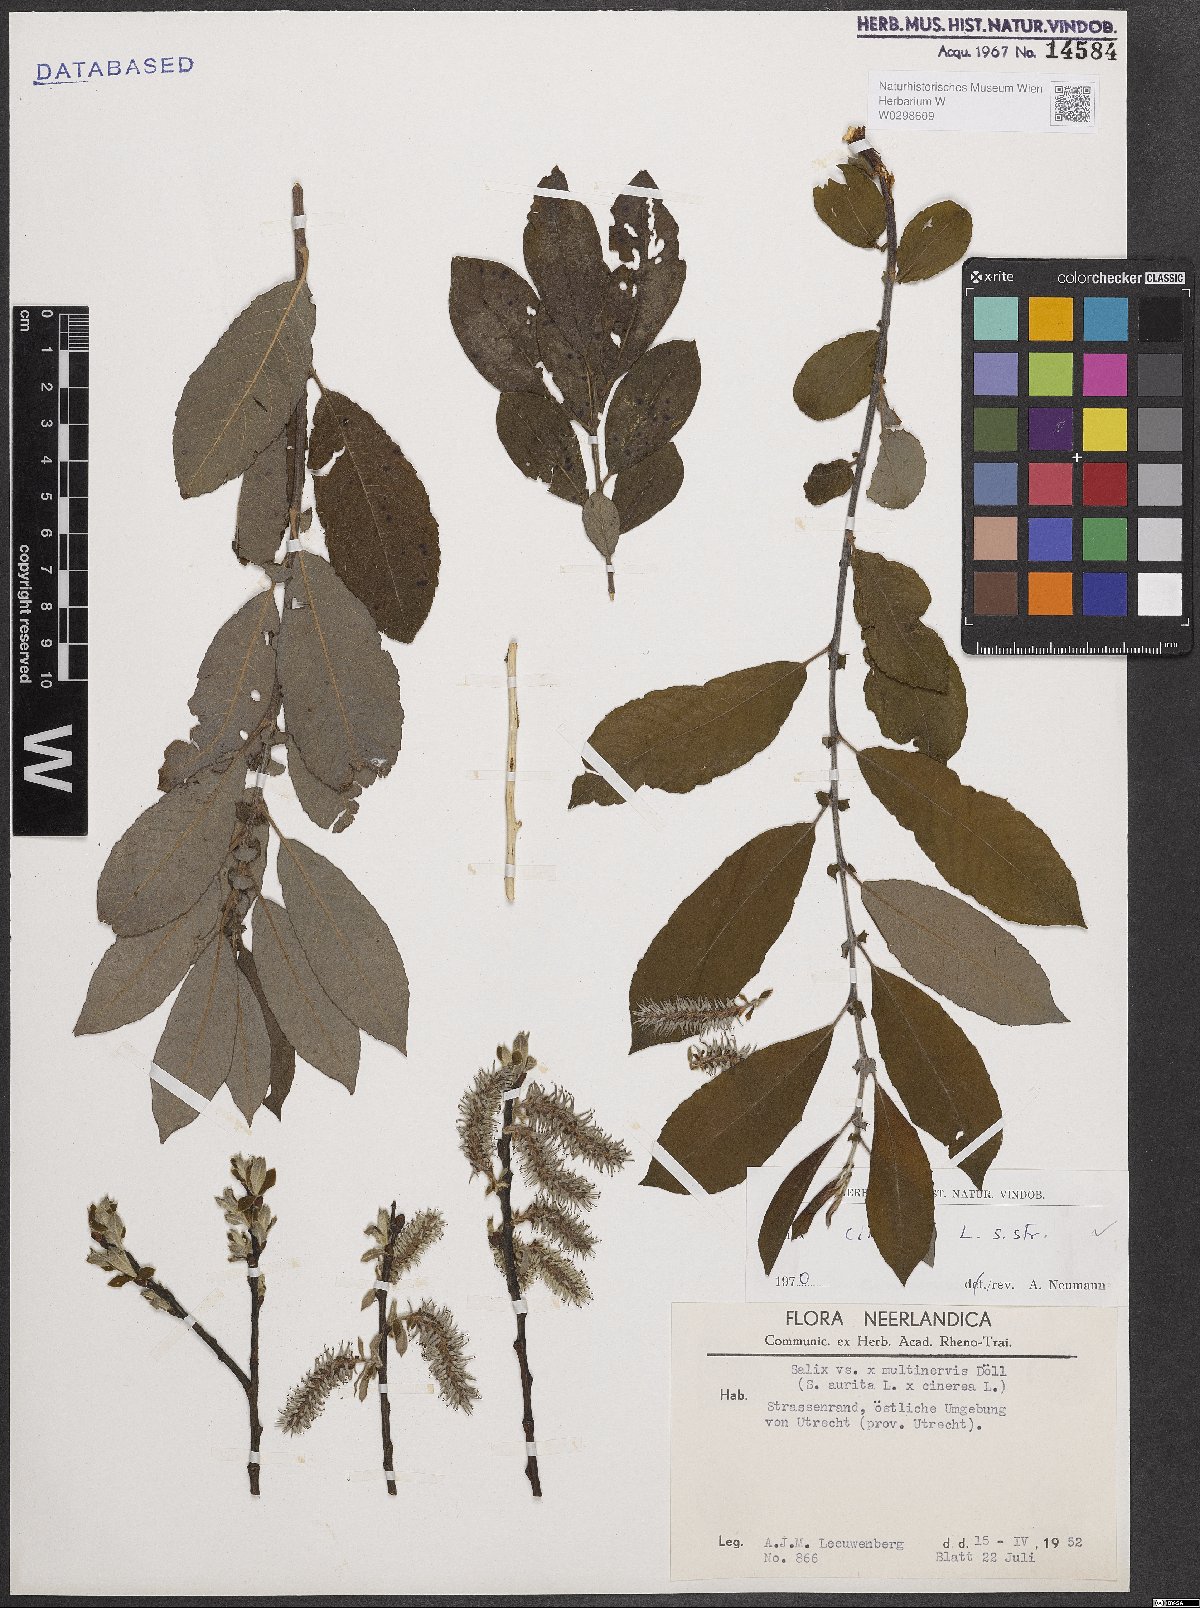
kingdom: Plantae
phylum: Tracheophyta
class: Magnoliopsida
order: Malpighiales
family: Salicaceae
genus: Salix
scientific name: Salix cinerea
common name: Common sallow
